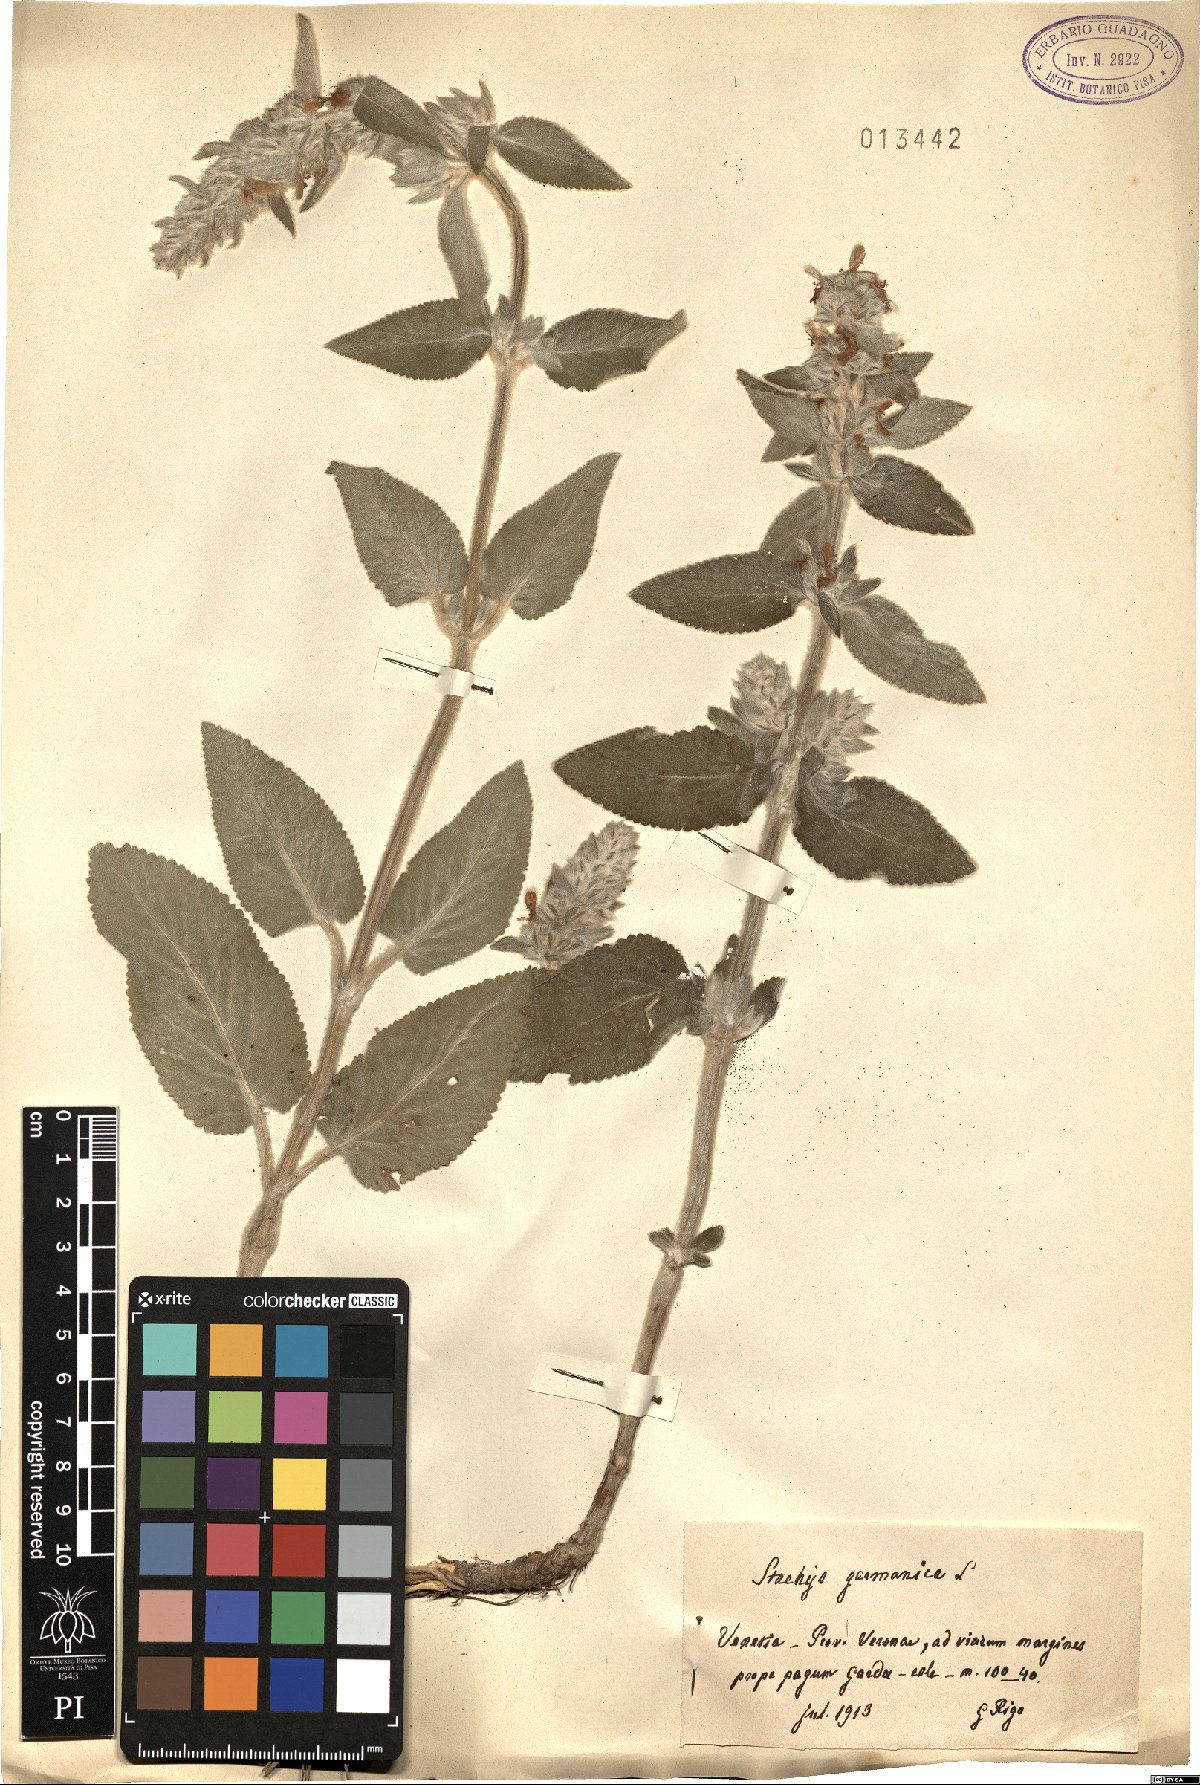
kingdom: Plantae
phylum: Tracheophyta
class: Magnoliopsida
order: Lamiales
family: Lamiaceae
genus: Stachys
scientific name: Stachys germanica
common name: Downy woundwort
